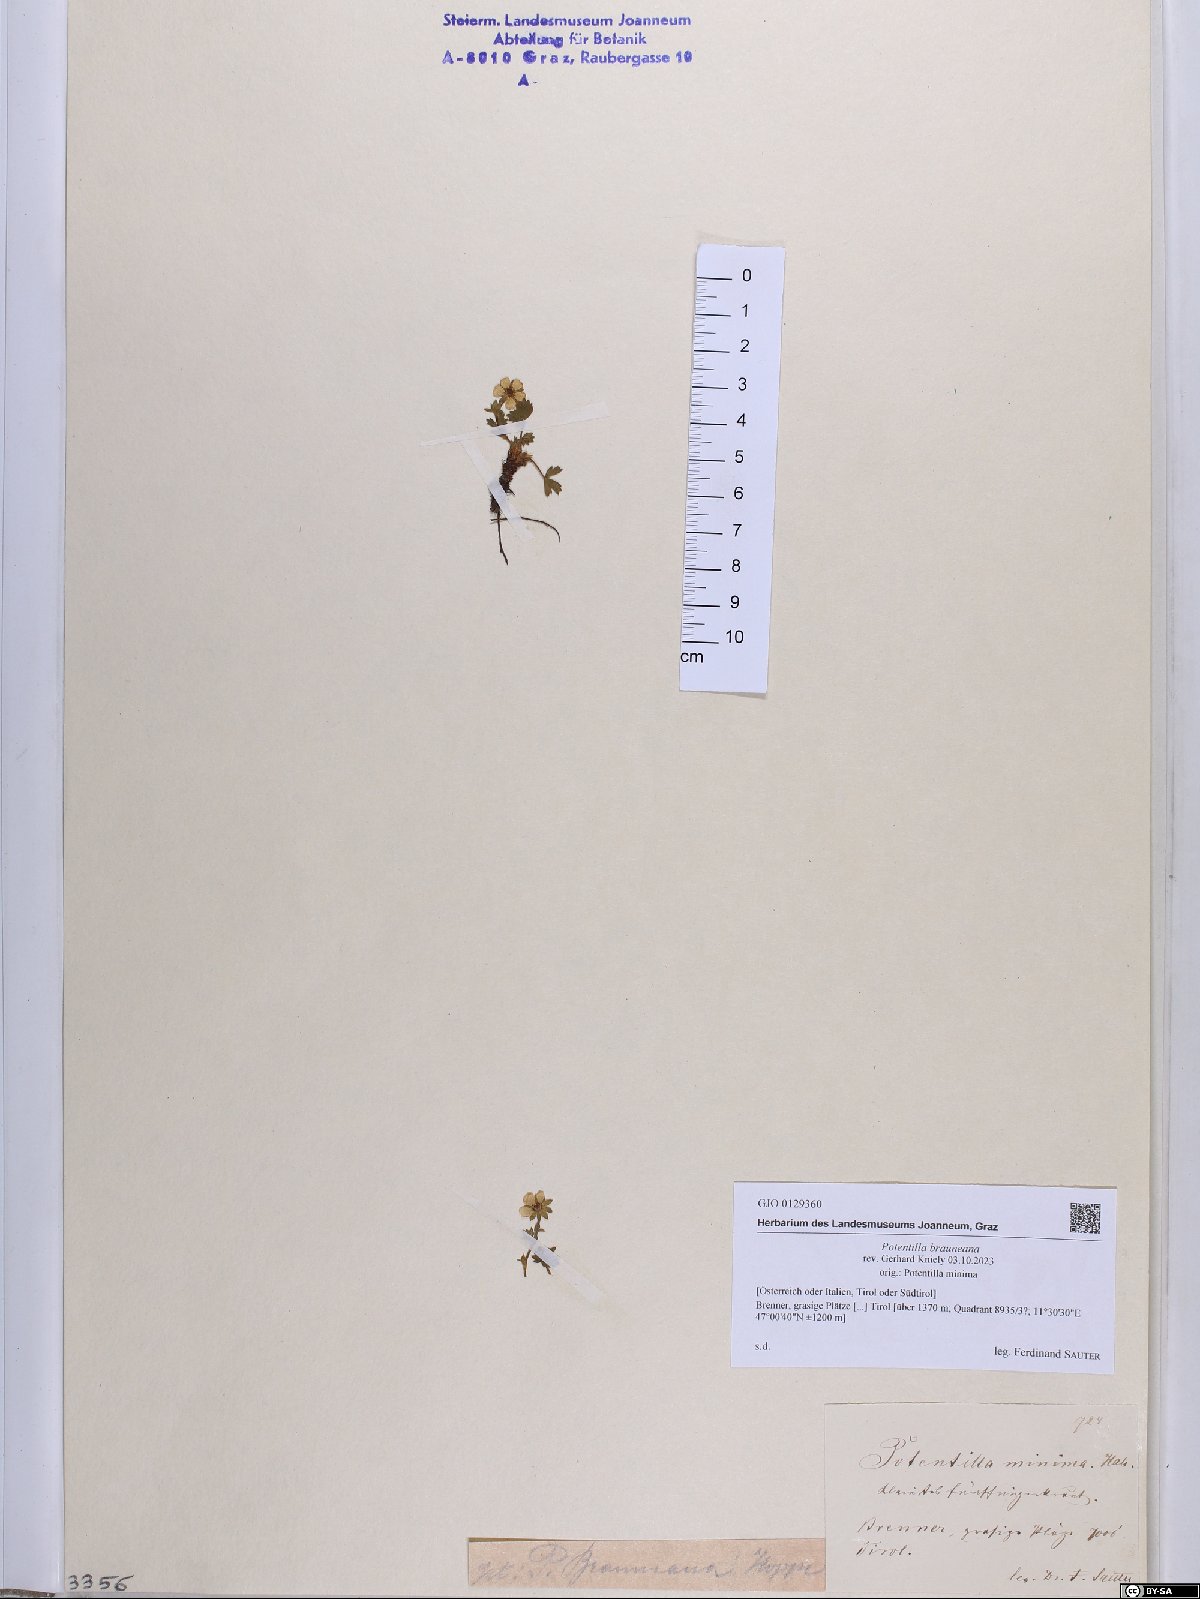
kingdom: Plantae
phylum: Tracheophyta
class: Magnoliopsida
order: Rosales
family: Rosaceae
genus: Potentilla
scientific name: Potentilla brauneana
